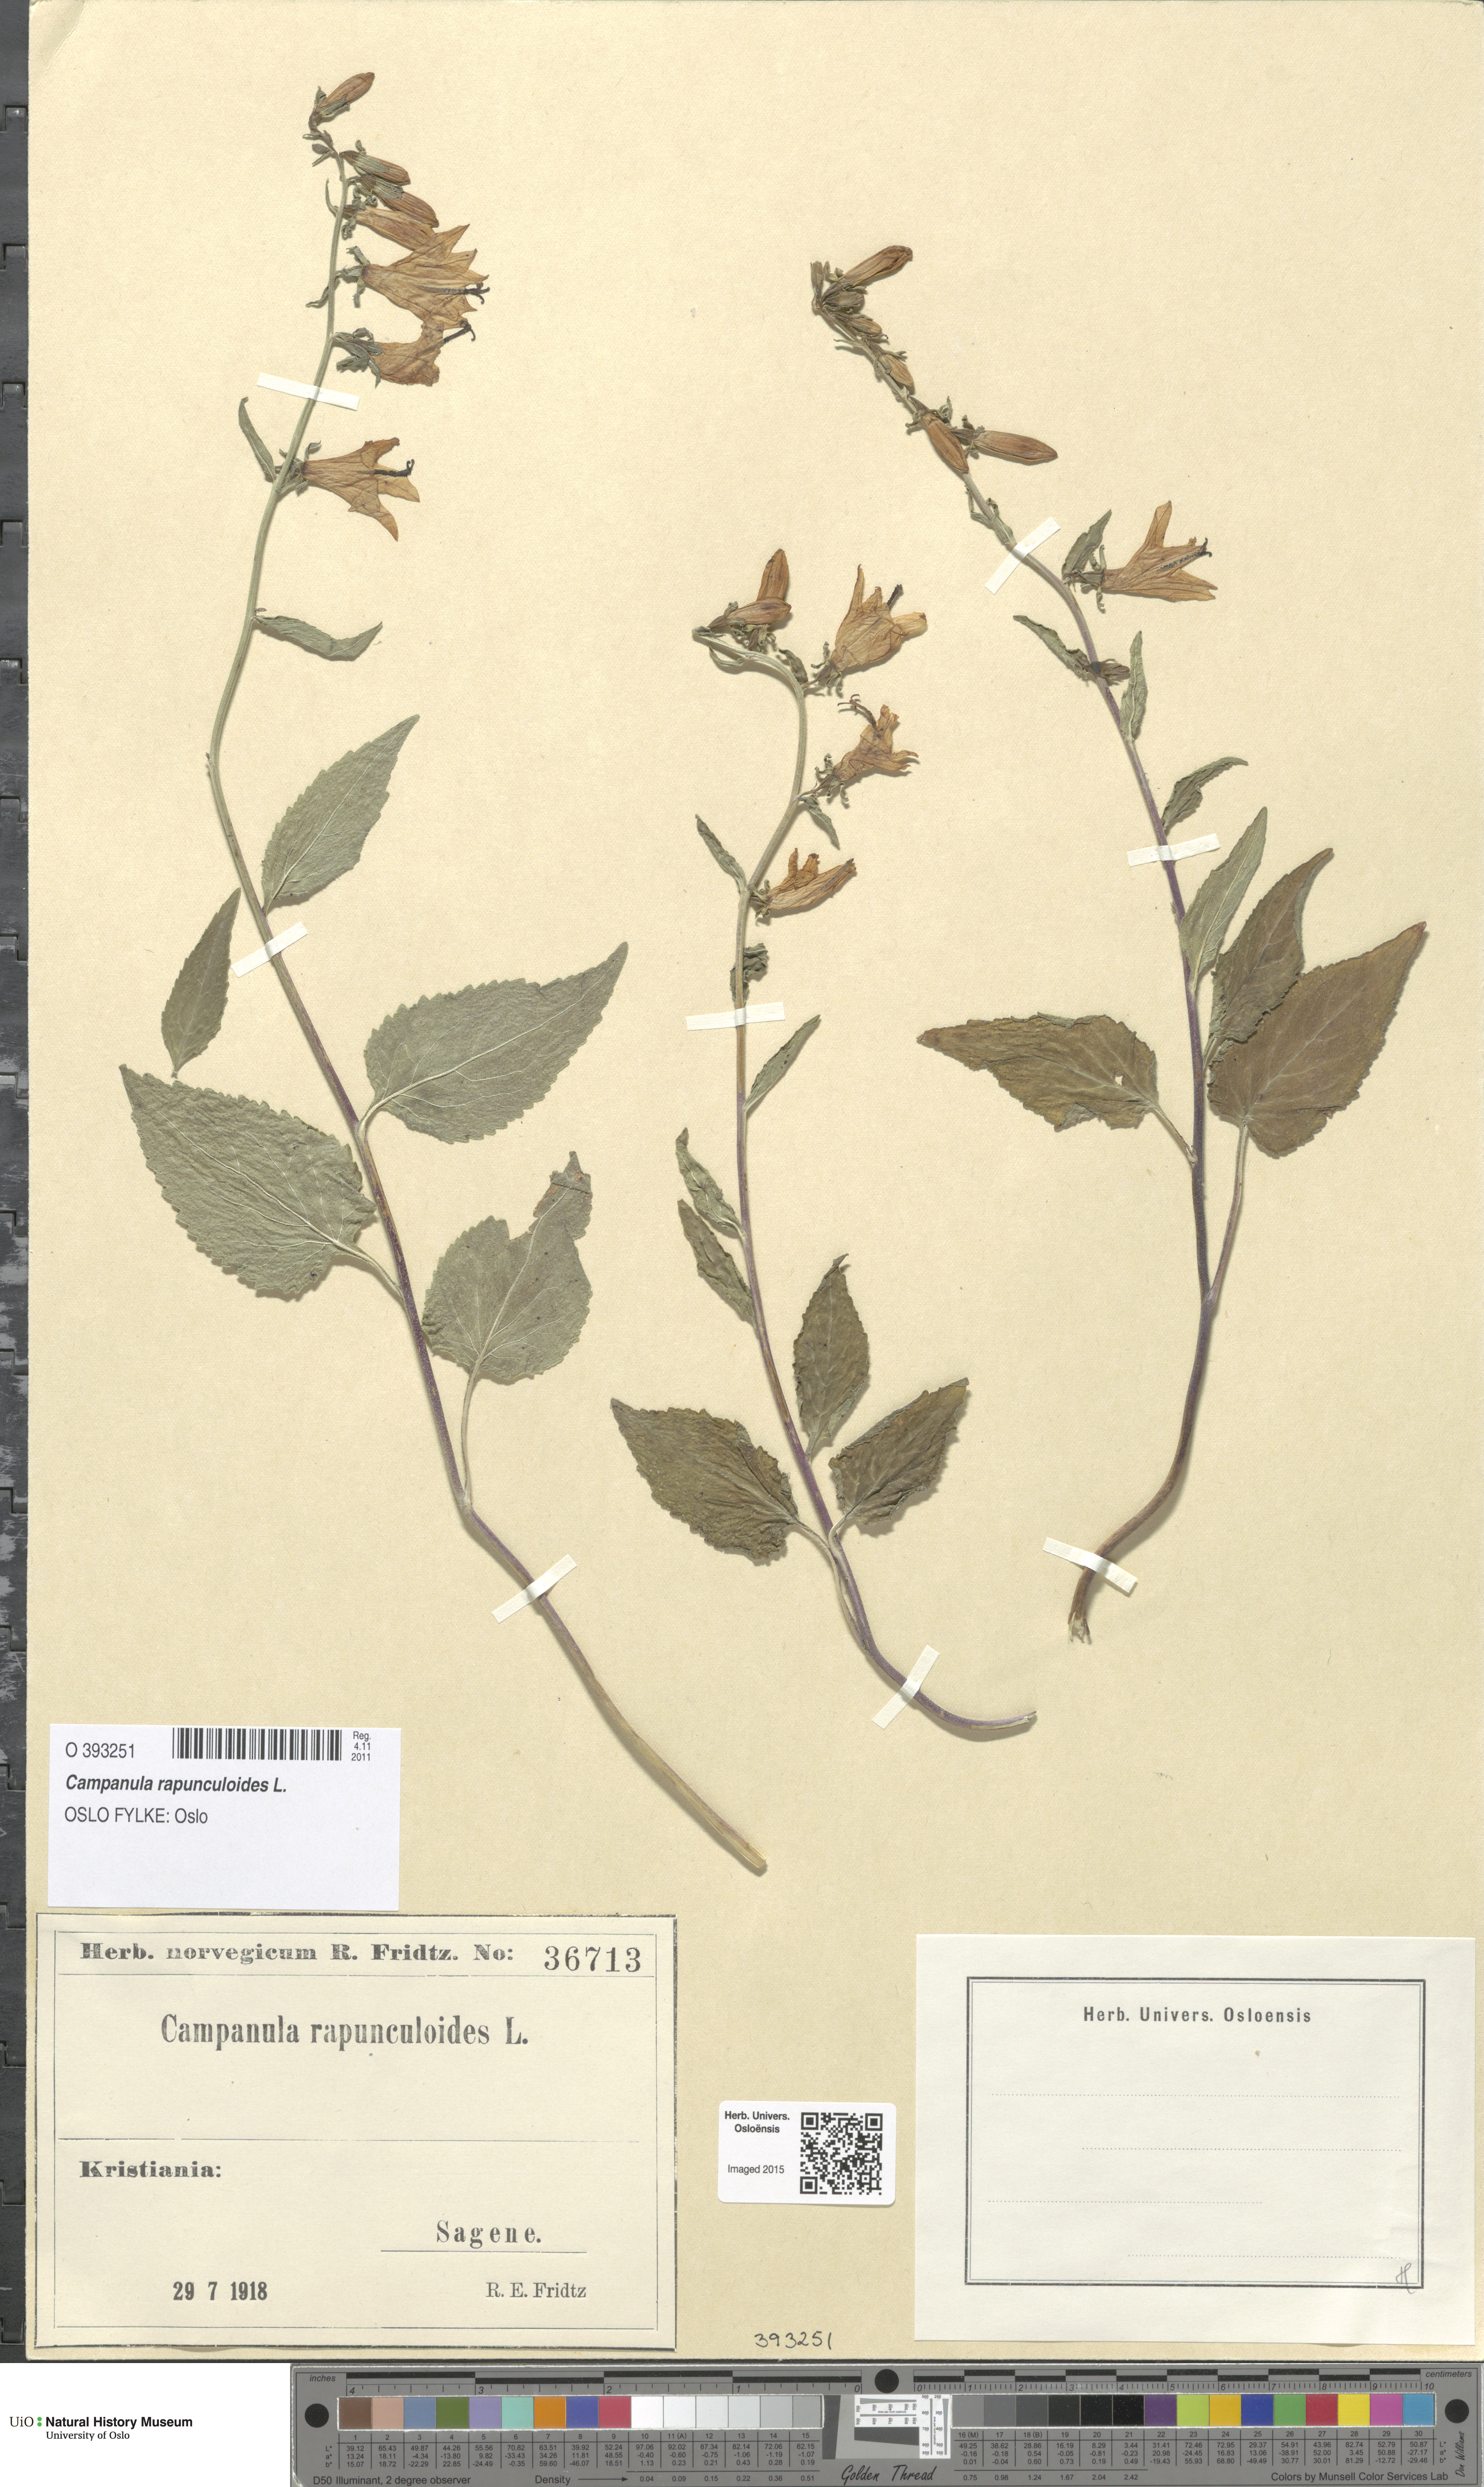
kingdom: Plantae
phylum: Tracheophyta
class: Magnoliopsida
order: Asterales
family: Campanulaceae
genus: Campanula
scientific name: Campanula rapunculoides
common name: Creeping bellflower
